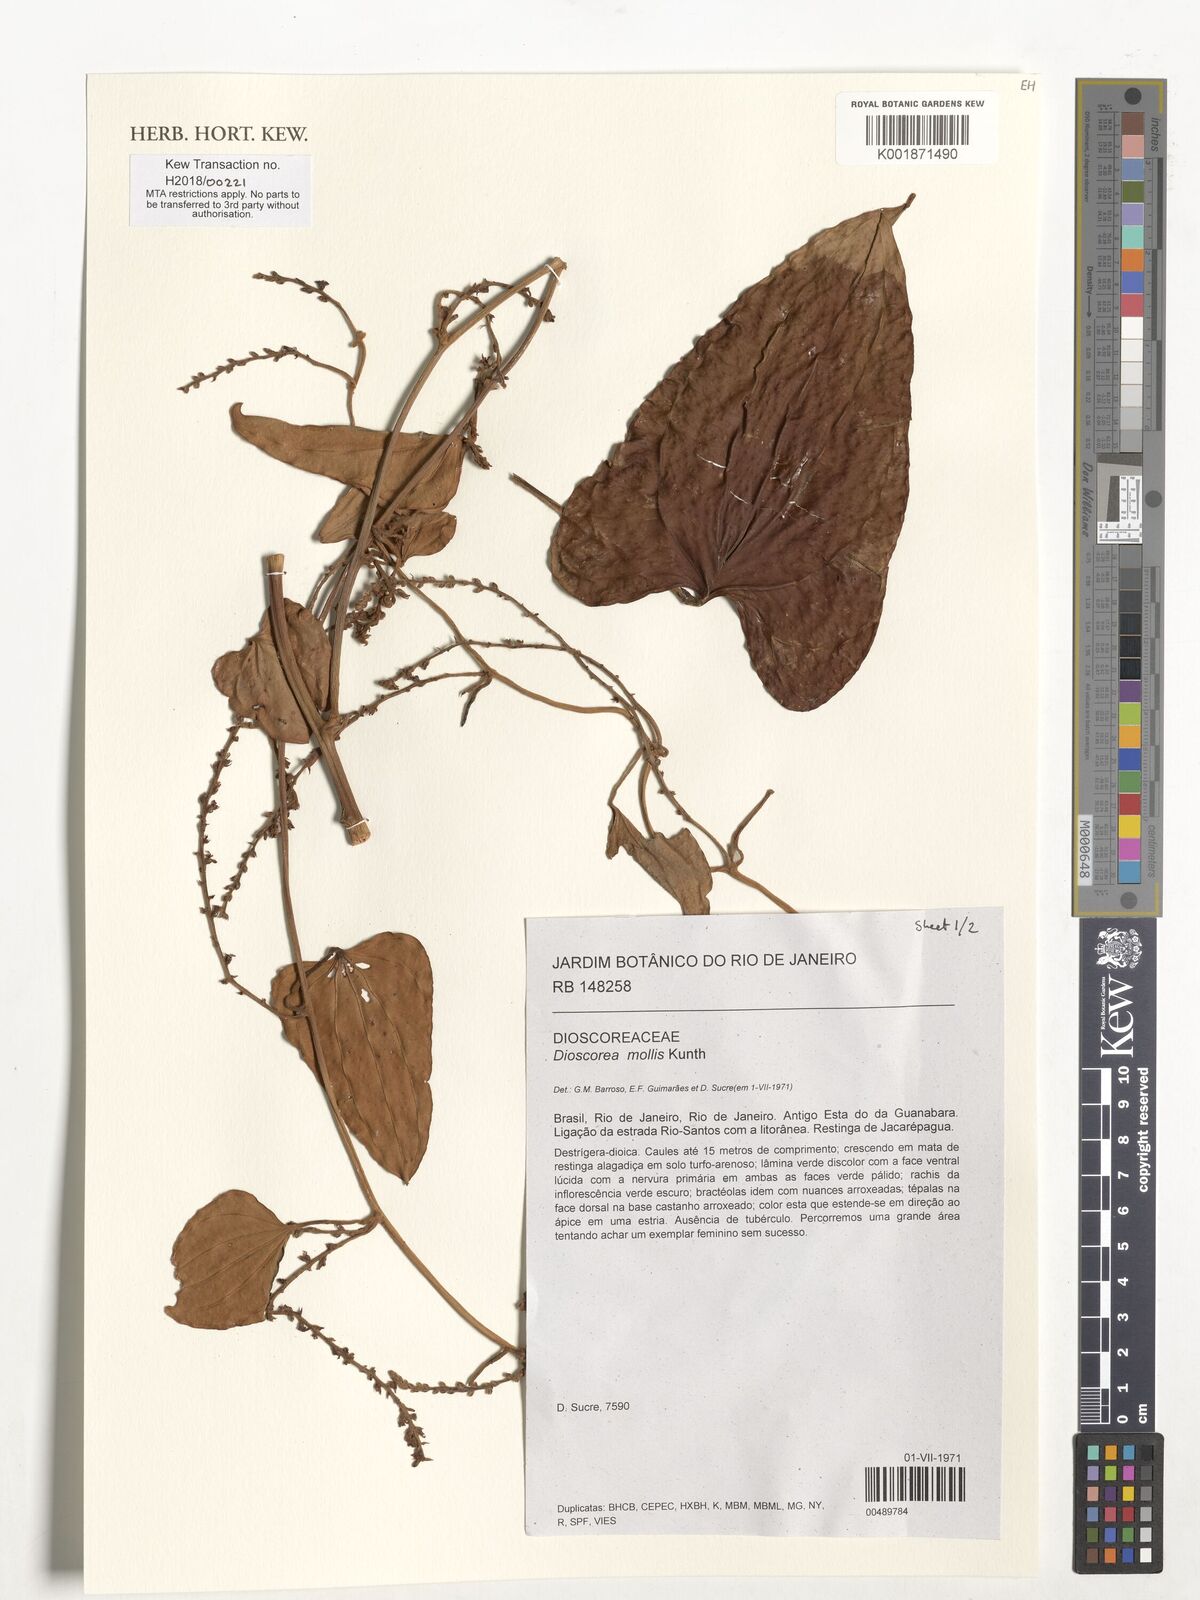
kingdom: Plantae
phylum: Tracheophyta
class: Liliopsida
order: Dioscoreales
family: Dioscoreaceae
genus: Dioscorea
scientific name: Dioscorea mollis
